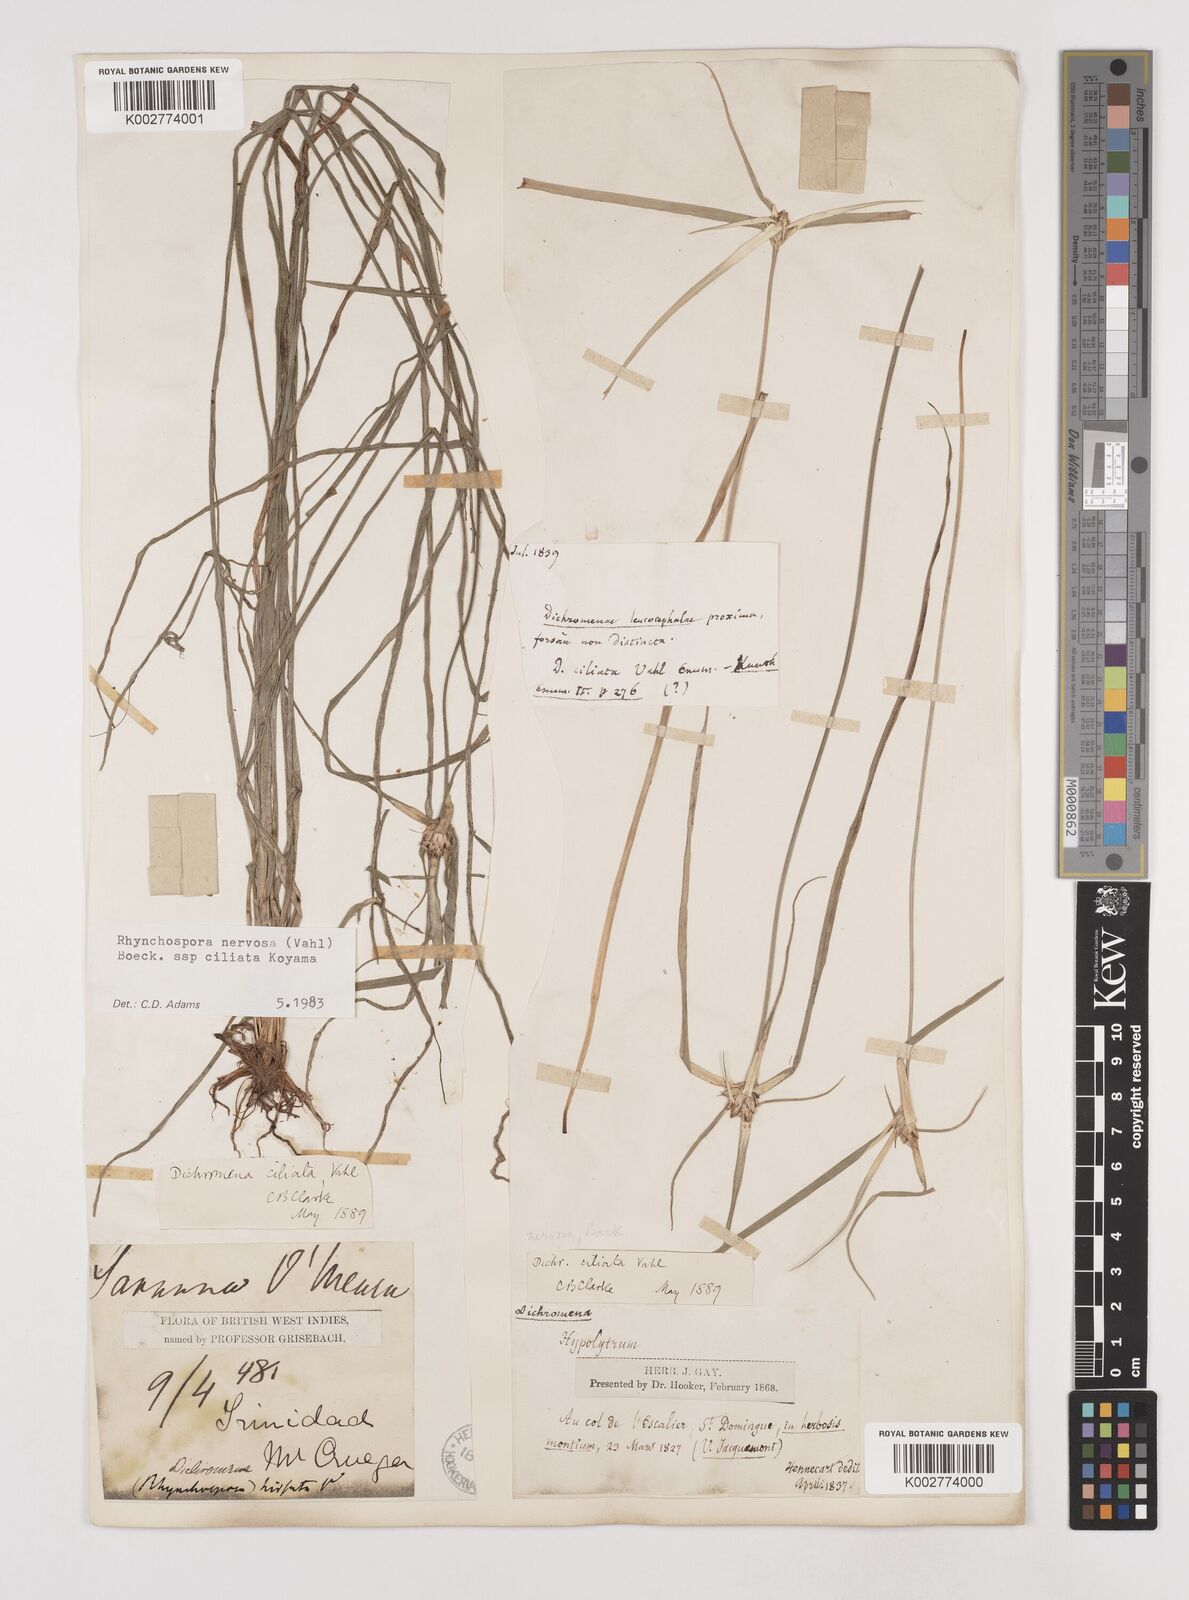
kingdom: Plantae
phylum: Tracheophyta
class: Liliopsida
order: Poales
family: Cyperaceae
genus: Rhynchospora
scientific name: Rhynchospora pura
